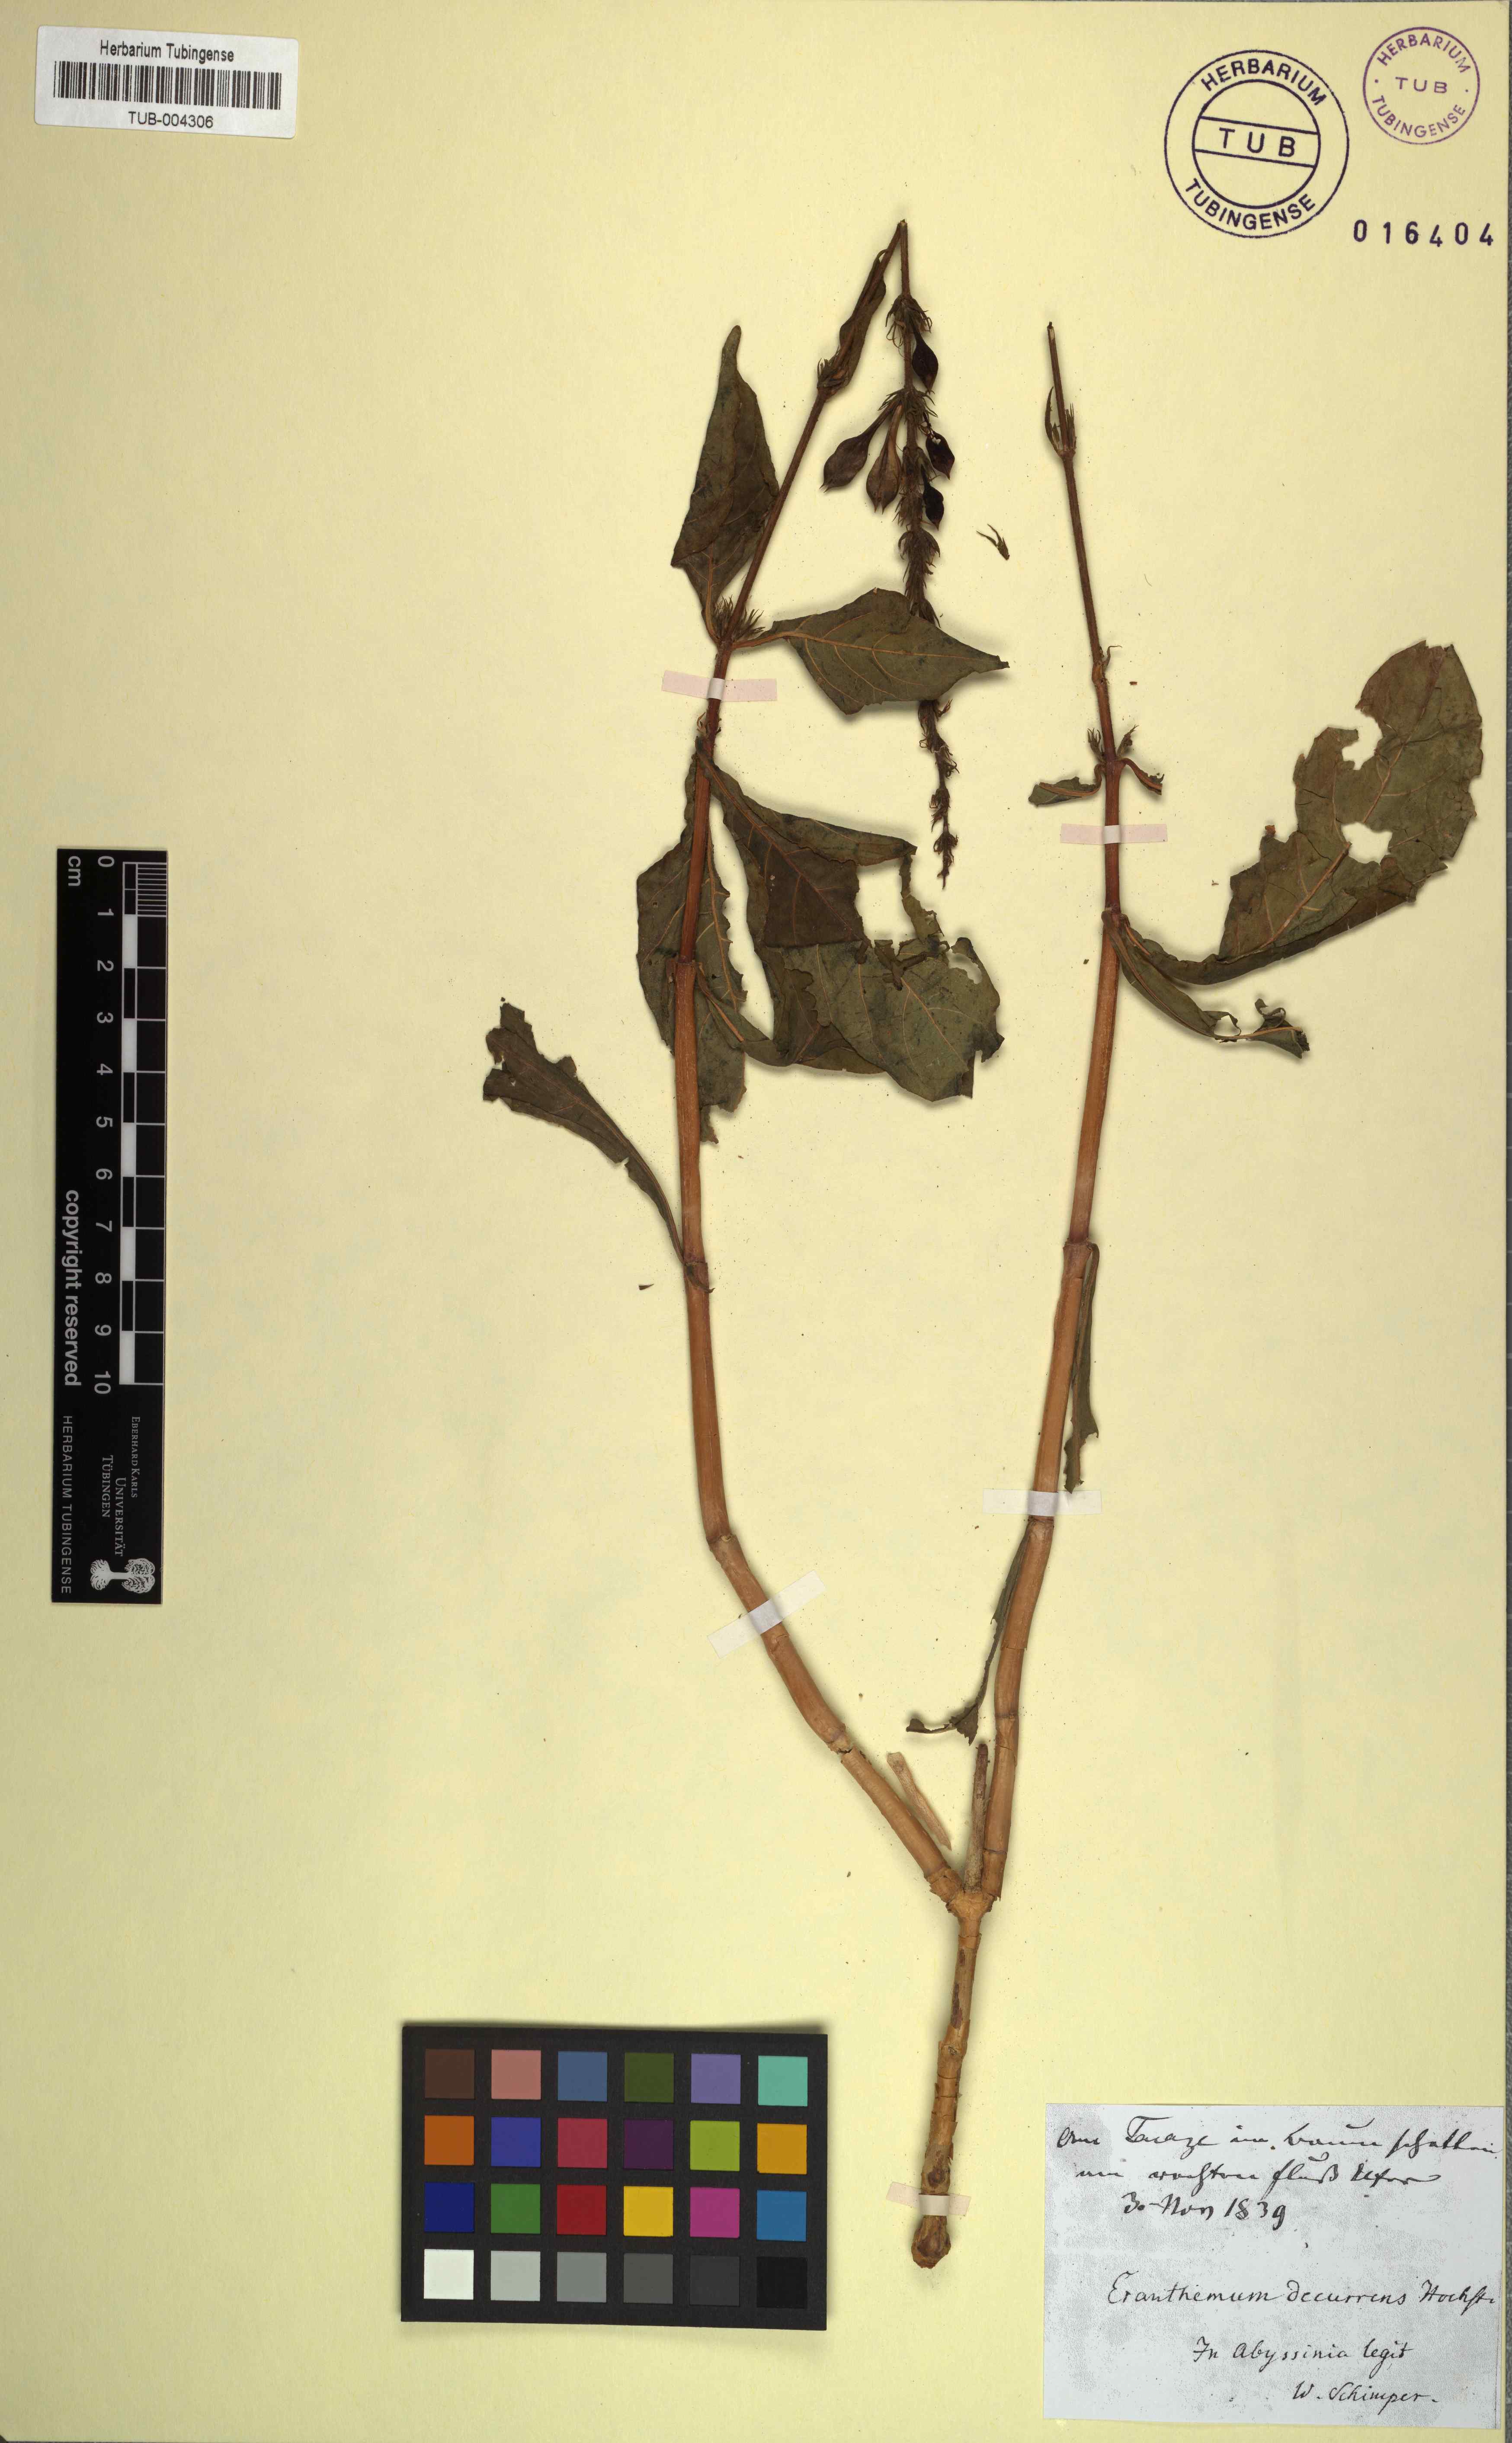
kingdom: Plantae
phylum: Tracheophyta
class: Magnoliopsida
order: Lamiales
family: Acanthaceae
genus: Ruspolia
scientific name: Ruspolia decurrens
